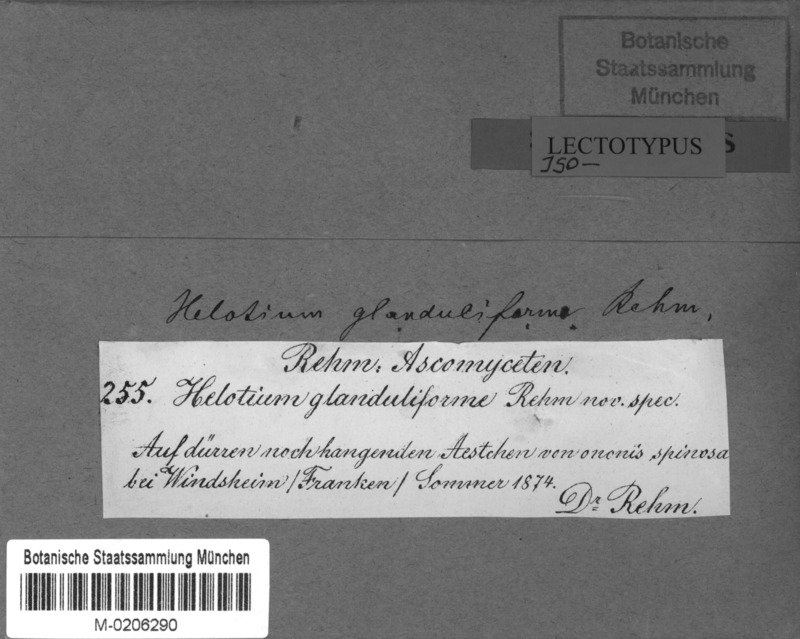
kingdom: Fungi
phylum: Ascomycota
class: Leotiomycetes
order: Helotiales
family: Helotiaceae
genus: Cyathicula
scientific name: Cyathicula cyathoidea
